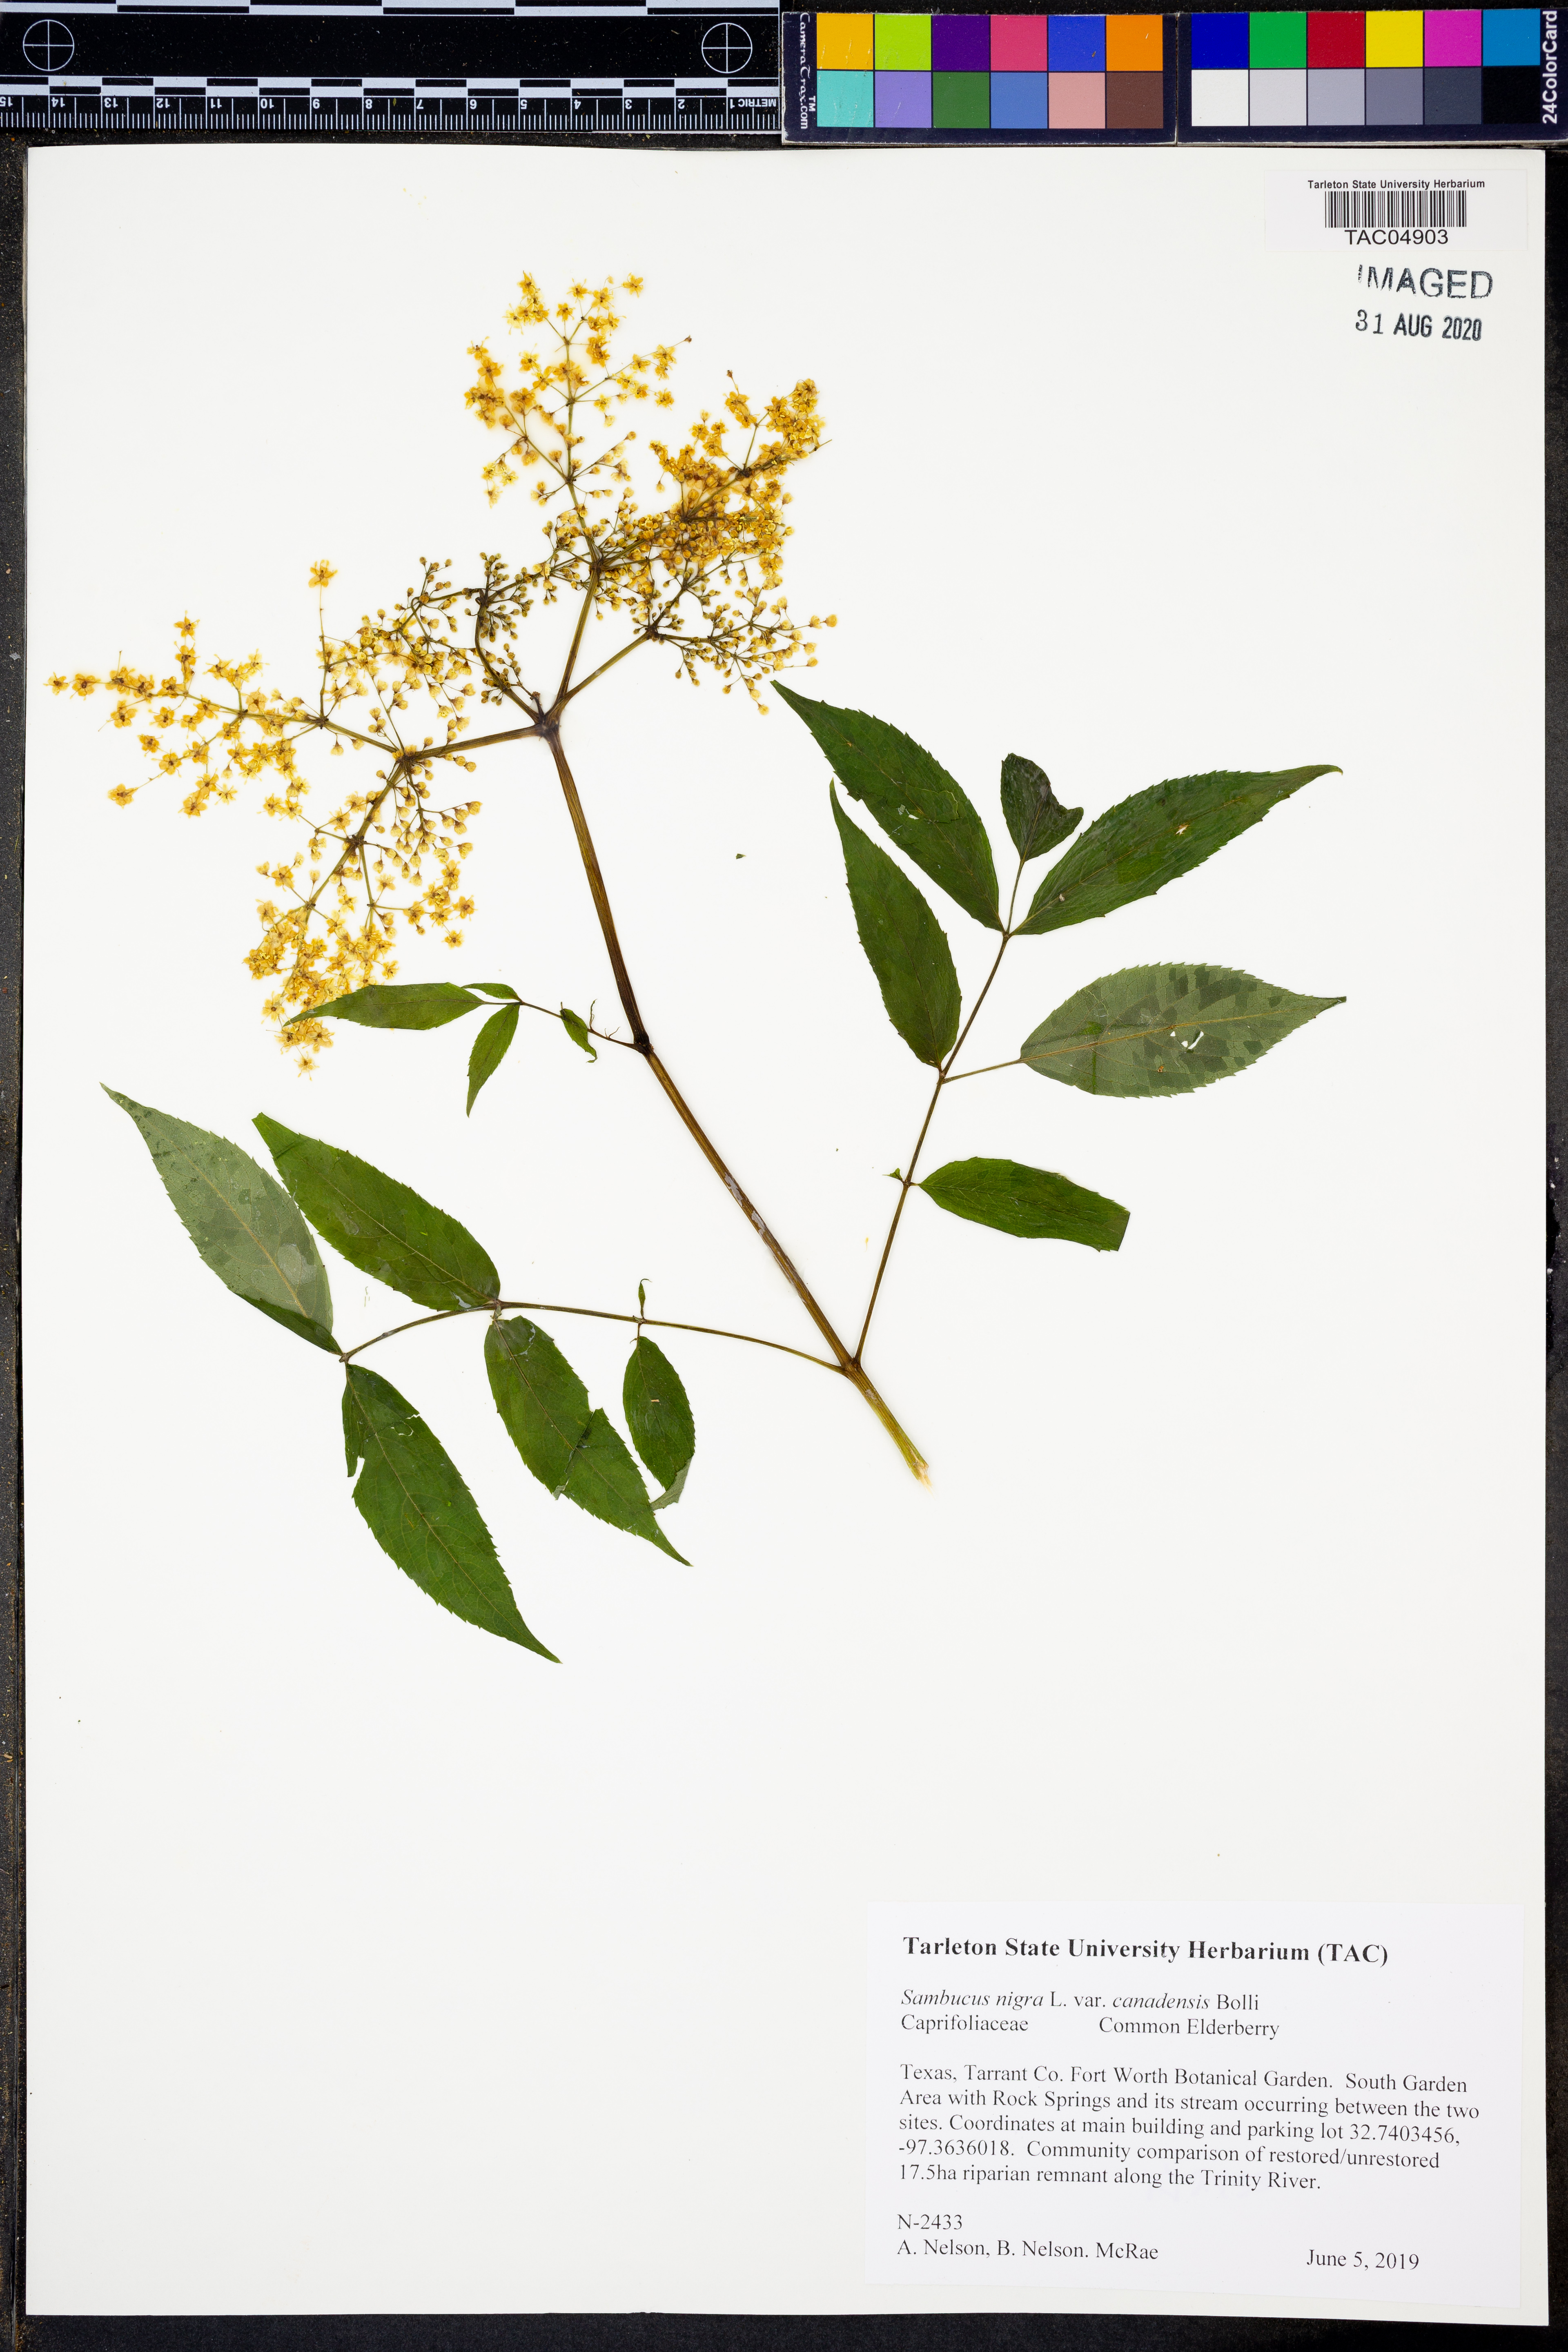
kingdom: Plantae
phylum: Tracheophyta
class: Magnoliopsida
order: Dipsacales
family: Viburnaceae
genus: Sambucus
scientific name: Sambucus canadensis
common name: American elder
